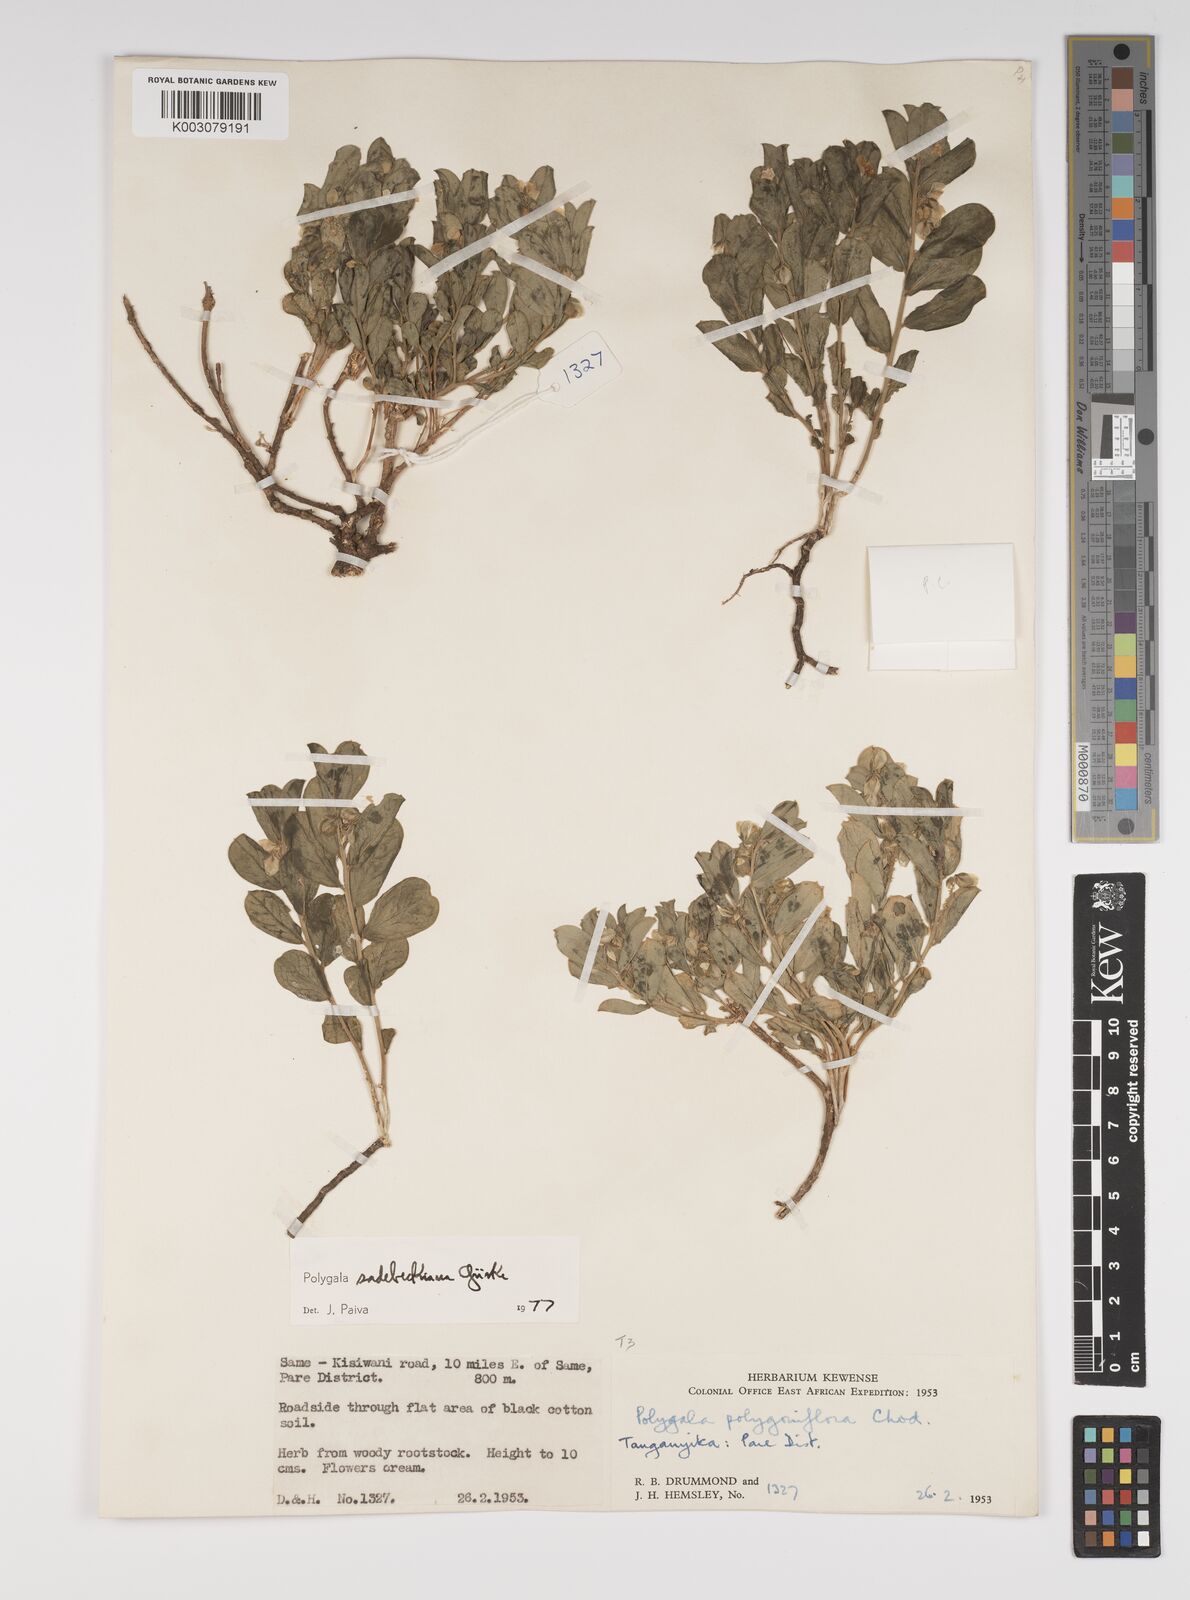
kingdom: Plantae
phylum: Tracheophyta
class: Magnoliopsida
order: Fabales
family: Polygalaceae
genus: Polygala
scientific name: Polygala sadebeckiana
